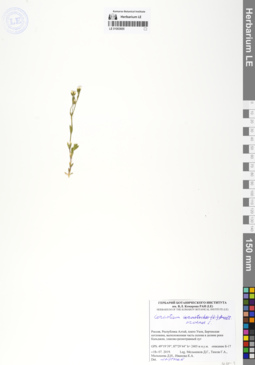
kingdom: Plantae
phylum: Tracheophyta
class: Magnoliopsida
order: Caryophyllales
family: Caryophyllaceae
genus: Cerastium
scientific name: Cerastium arvense
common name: Field mouse-ear
